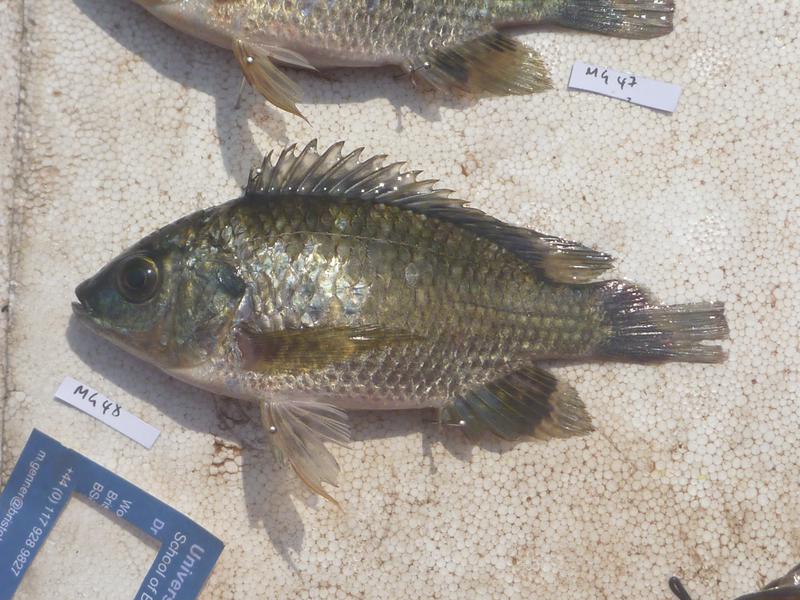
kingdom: Animalia
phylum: Chordata
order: Perciformes
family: Cichlidae
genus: Oreochromis
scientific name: Oreochromis leucostictus
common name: Blue spotted tilapia
